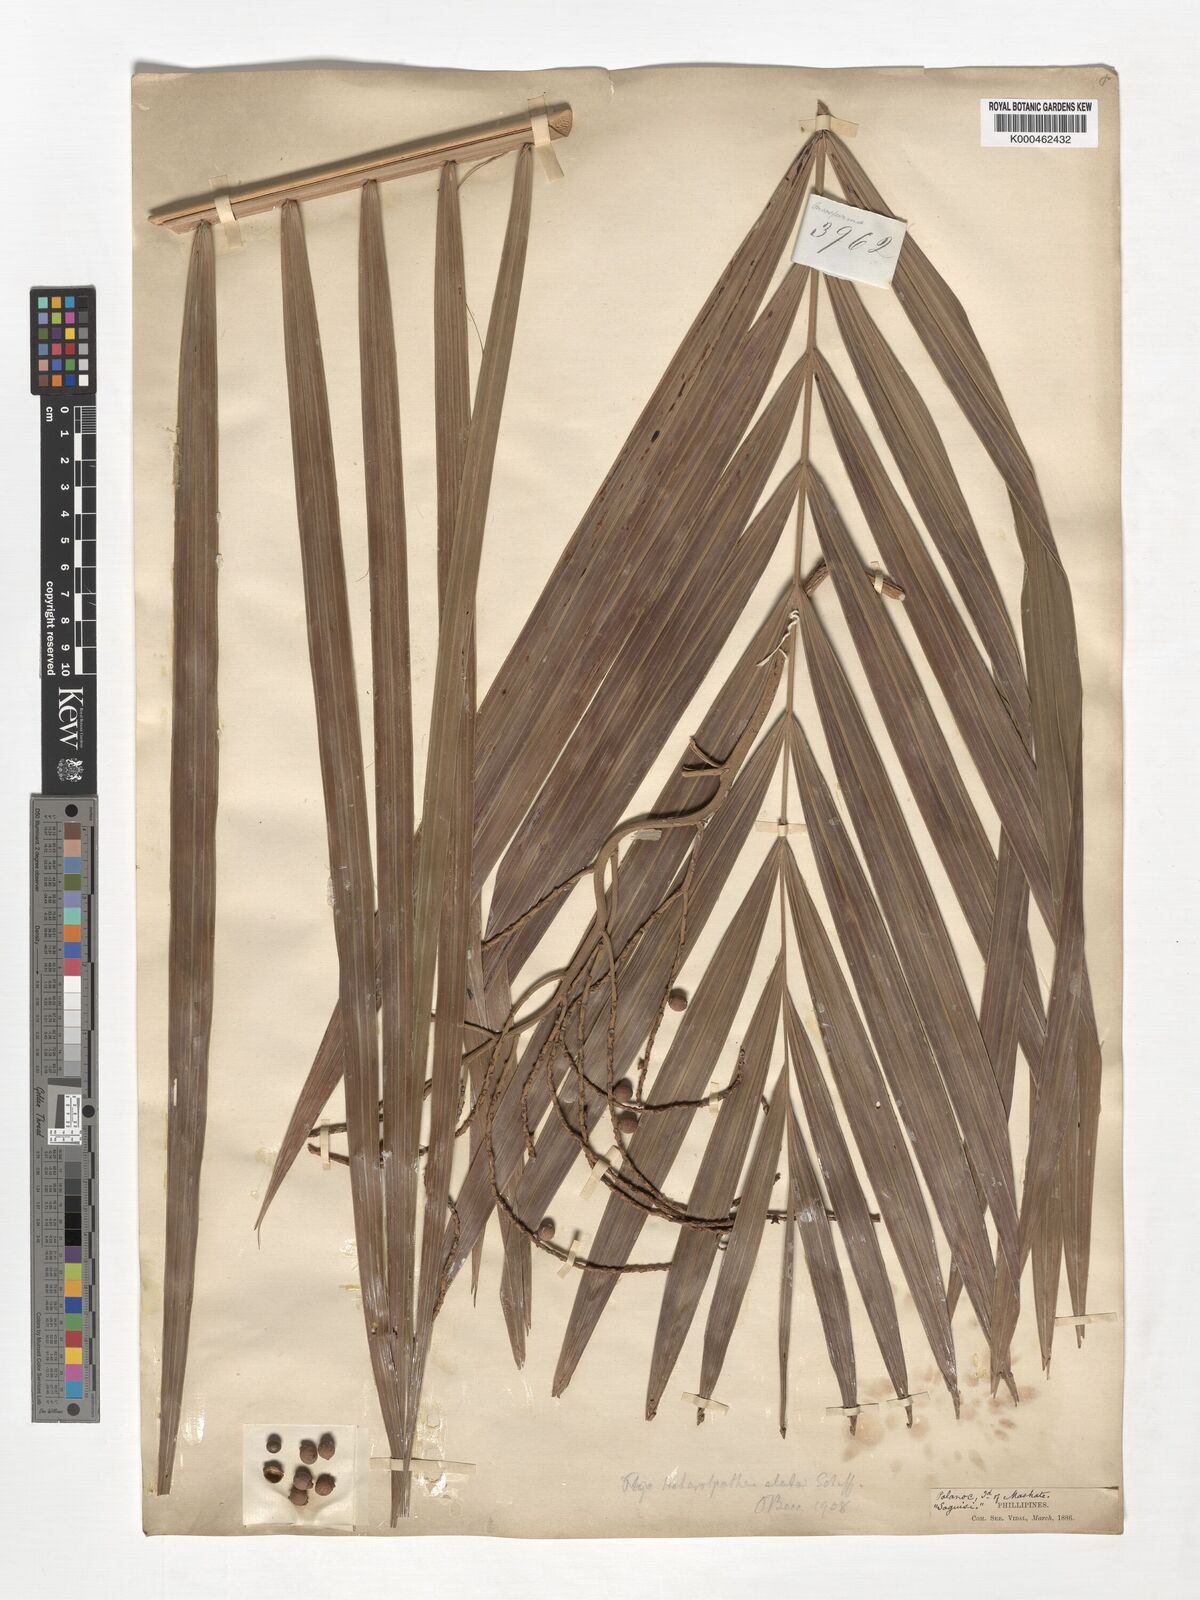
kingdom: Plantae
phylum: Tracheophyta
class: Liliopsida
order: Arecales
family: Arecaceae
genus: Heterospathe
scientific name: Heterospathe elata
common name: Sagisi palm
